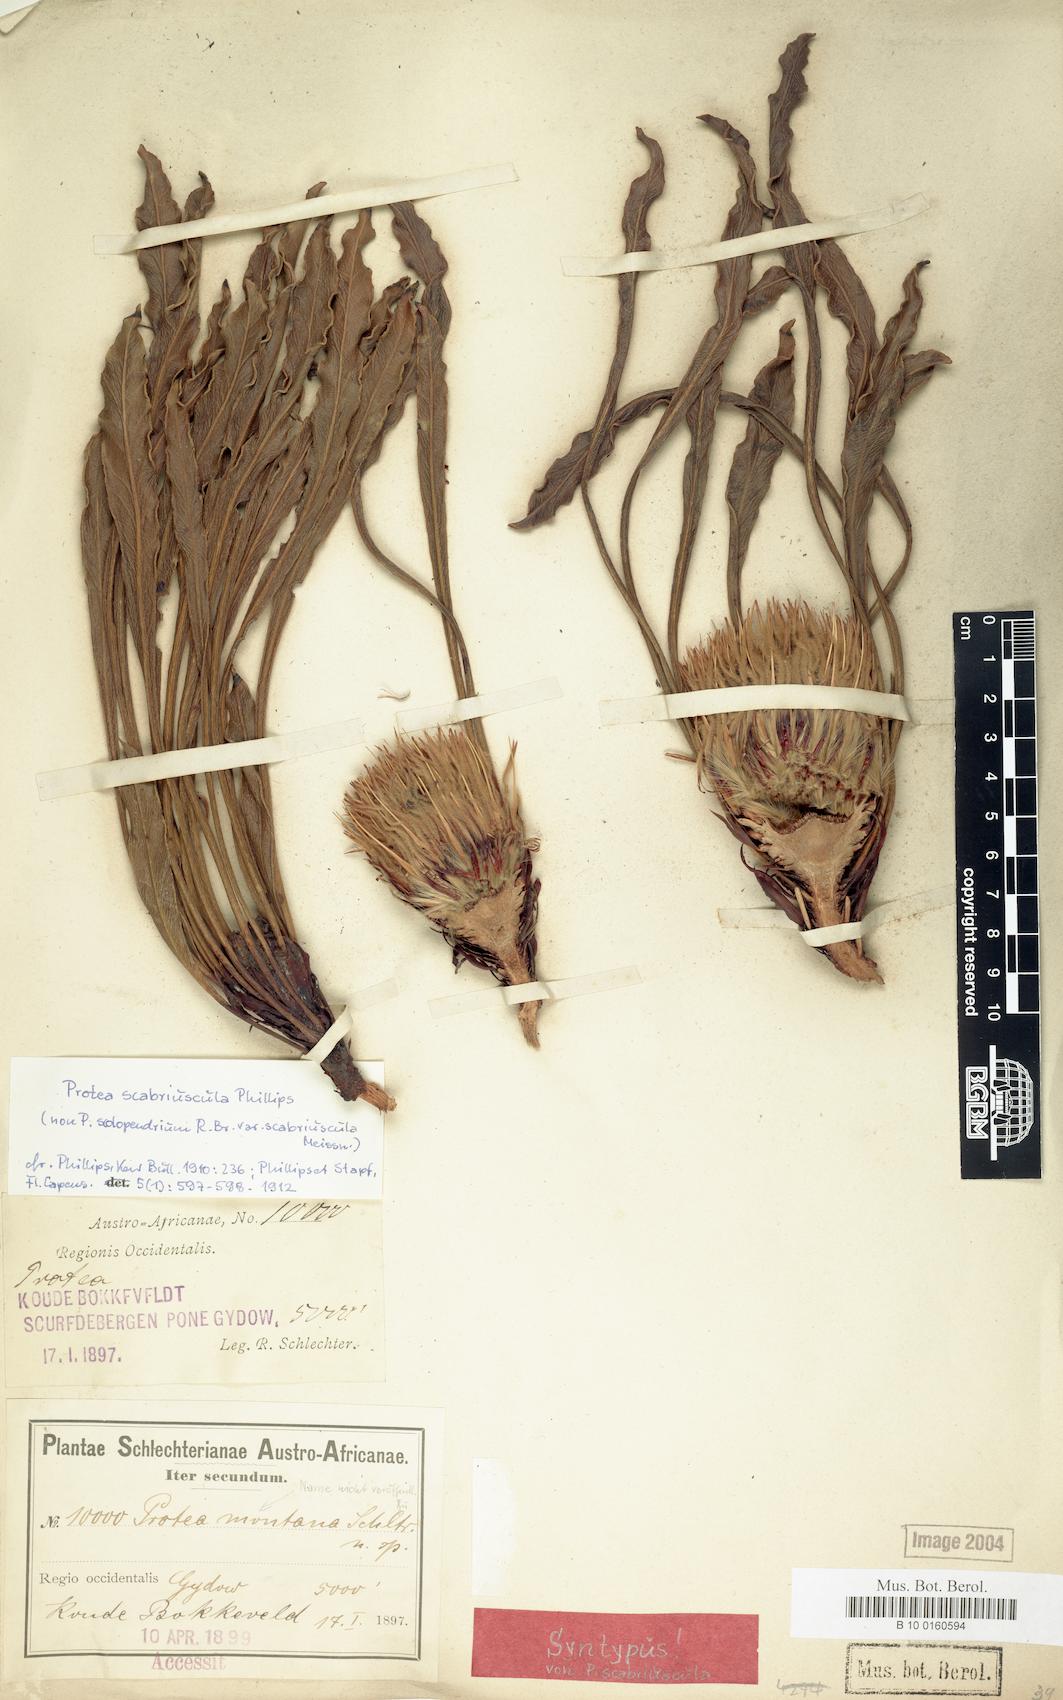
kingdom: Plantae
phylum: Tracheophyta
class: Magnoliopsida
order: Proteales
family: Proteaceae
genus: Protea
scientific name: Protea scabriuscula
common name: Hoary sugarbush
